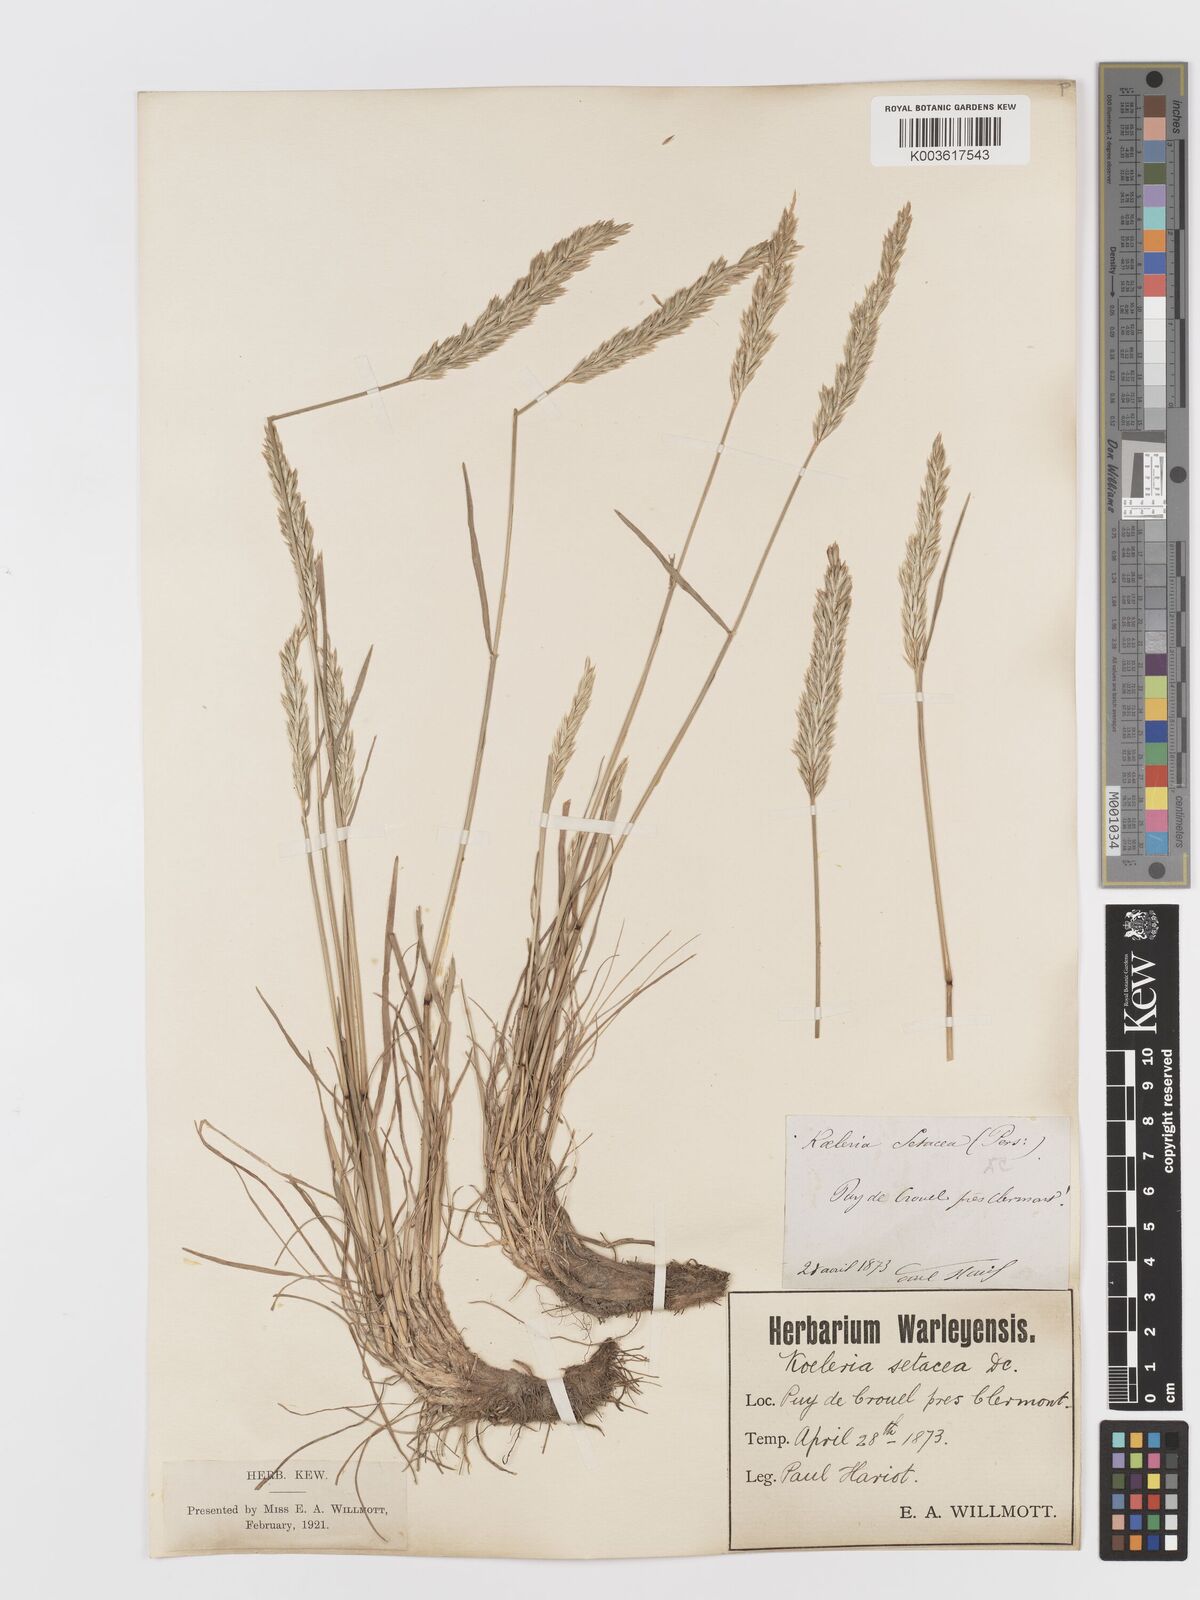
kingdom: Plantae
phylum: Tracheophyta
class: Liliopsida
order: Poales
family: Poaceae
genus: Koeleria
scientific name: Koeleria
